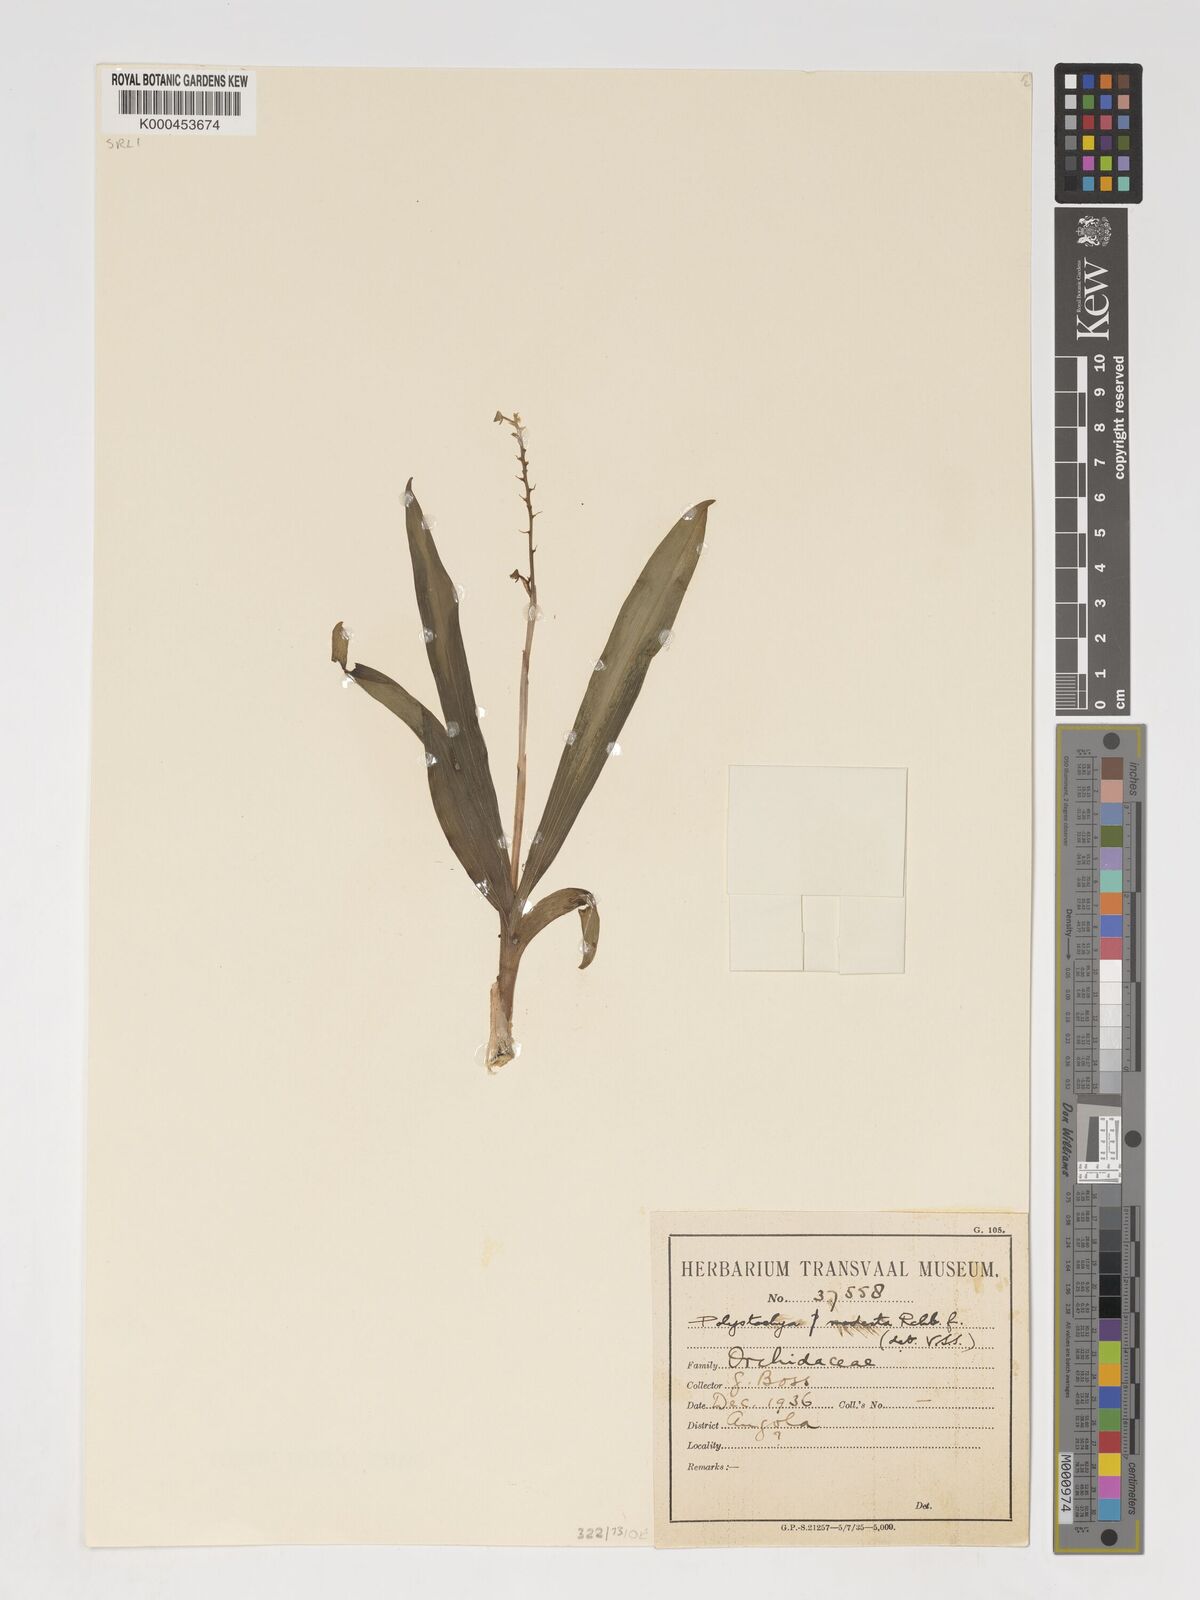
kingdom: Plantae
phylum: Tracheophyta
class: Liliopsida
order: Asparagales
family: Orchidaceae
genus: Polystachya
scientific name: Polystachya modesta
